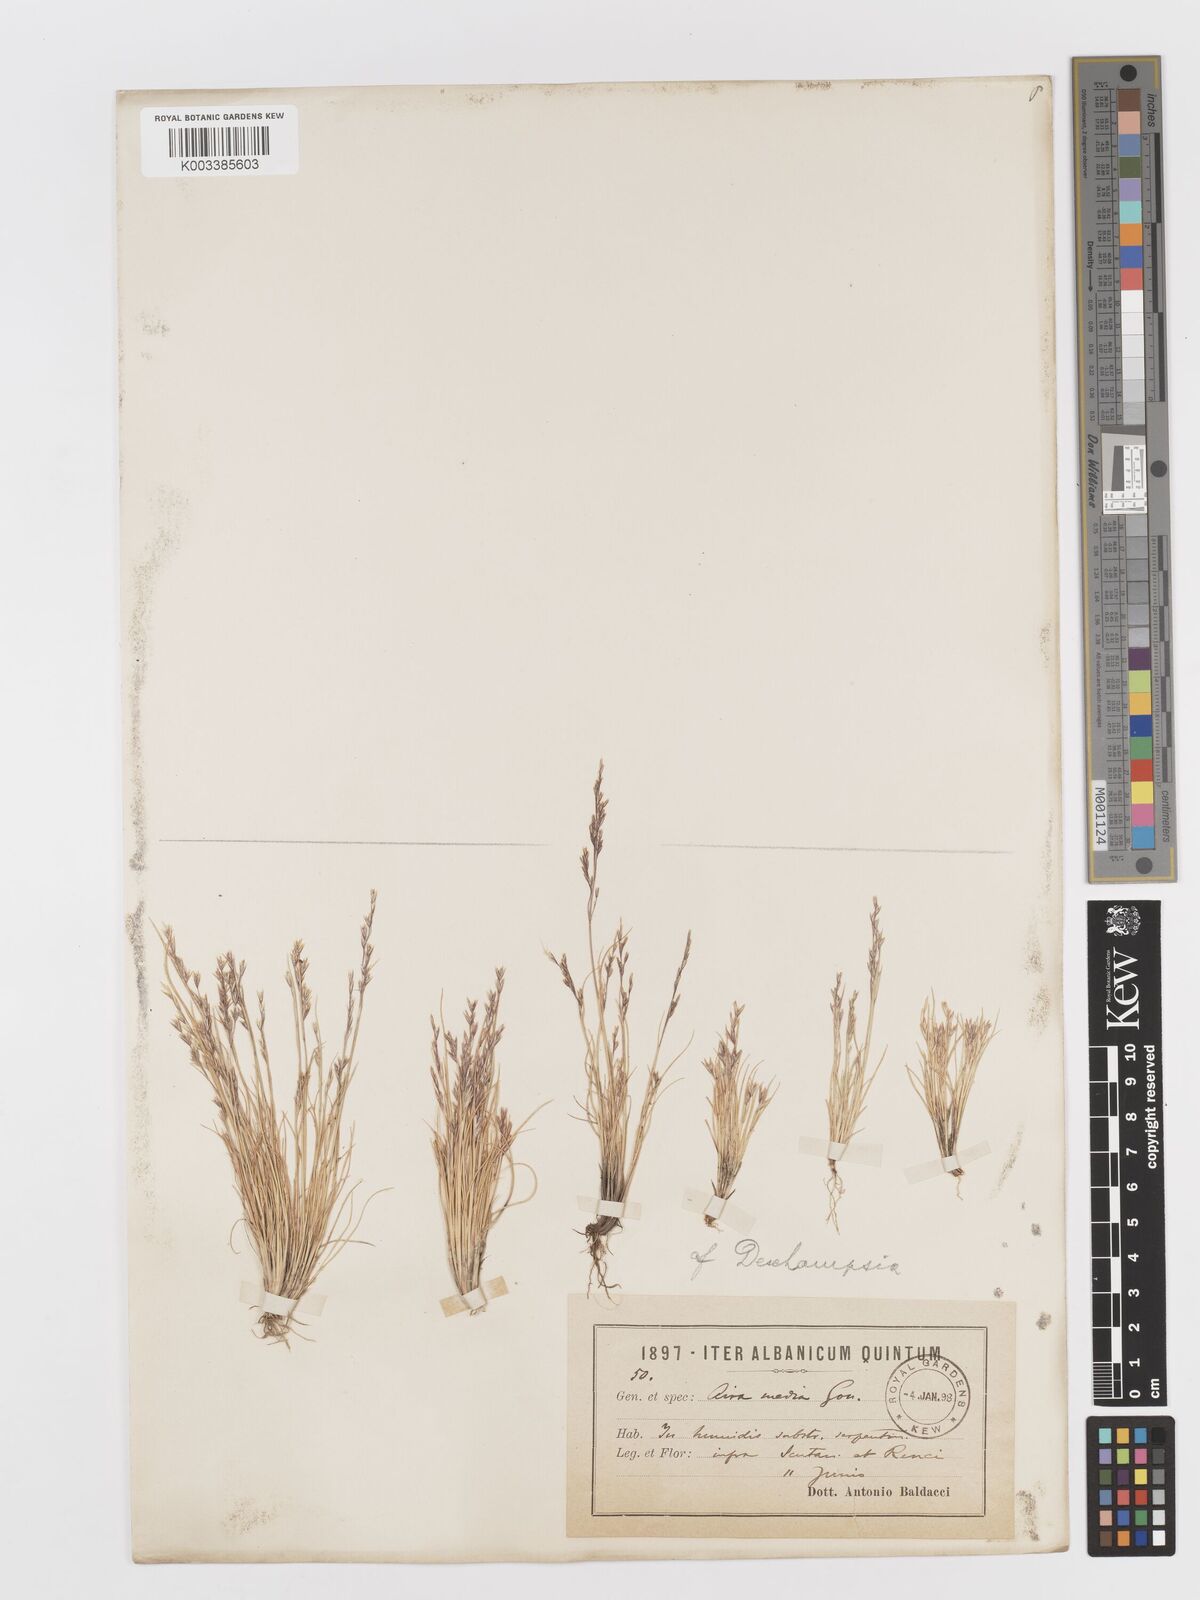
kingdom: Plantae
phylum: Tracheophyta
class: Liliopsida
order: Poales
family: Poaceae
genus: Deschampsia
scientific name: Deschampsia media
